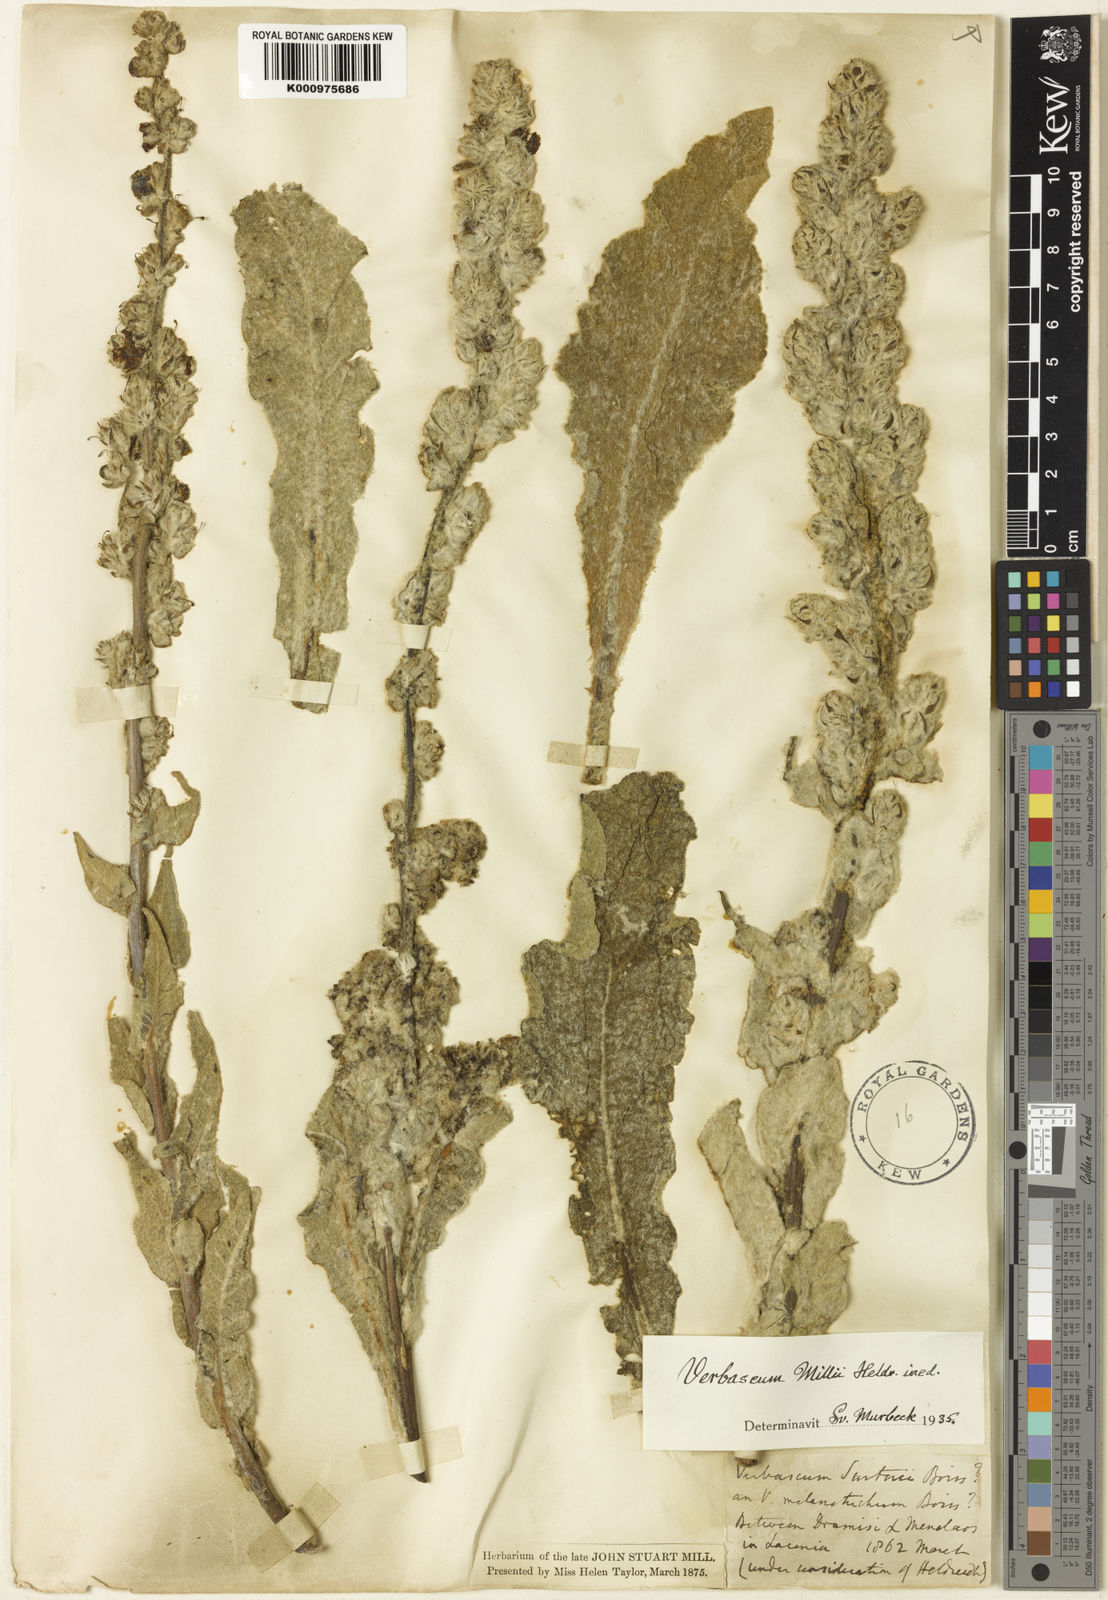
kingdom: Plantae
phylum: Tracheophyta
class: Magnoliopsida
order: Lamiales
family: Scrophulariaceae
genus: Verbascum
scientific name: Verbascum
